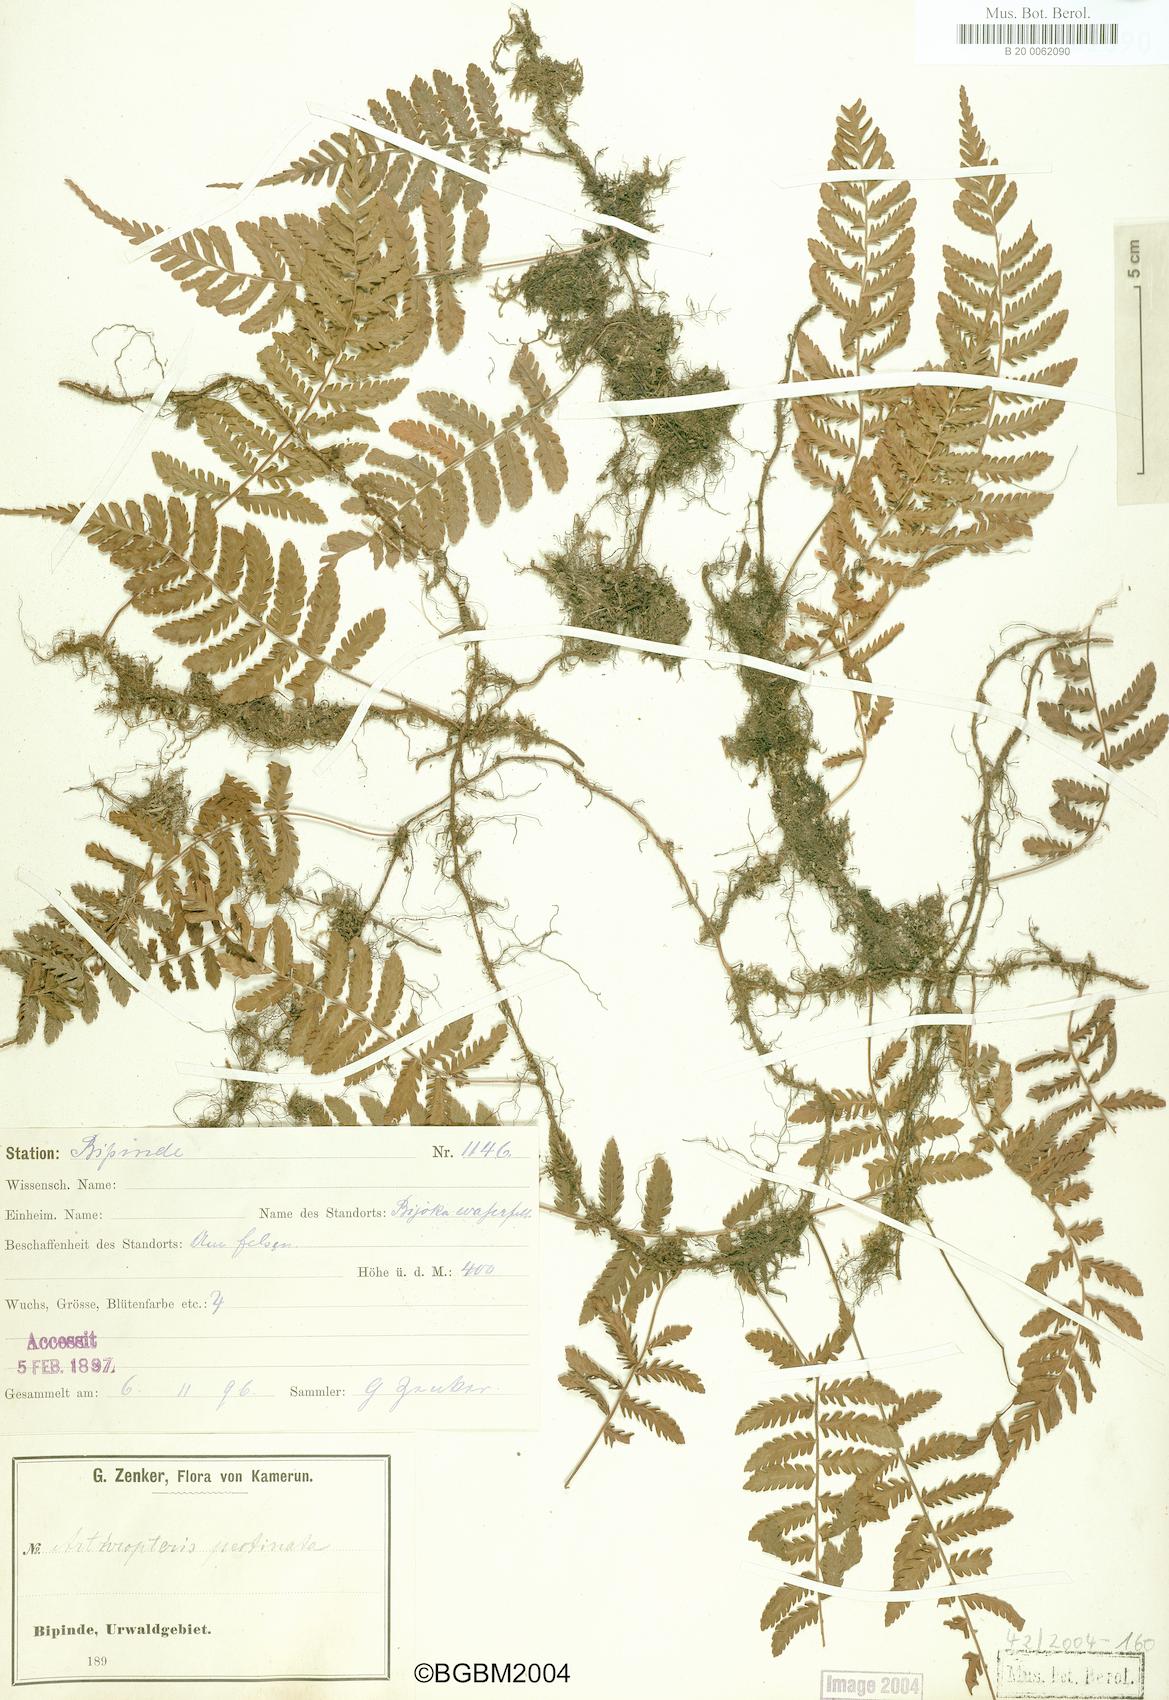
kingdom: Plantae
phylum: Tracheophyta
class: Polypodiopsida
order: Polypodiales
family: Tectariaceae
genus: Arthropteris
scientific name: Arthropteris orientalis
